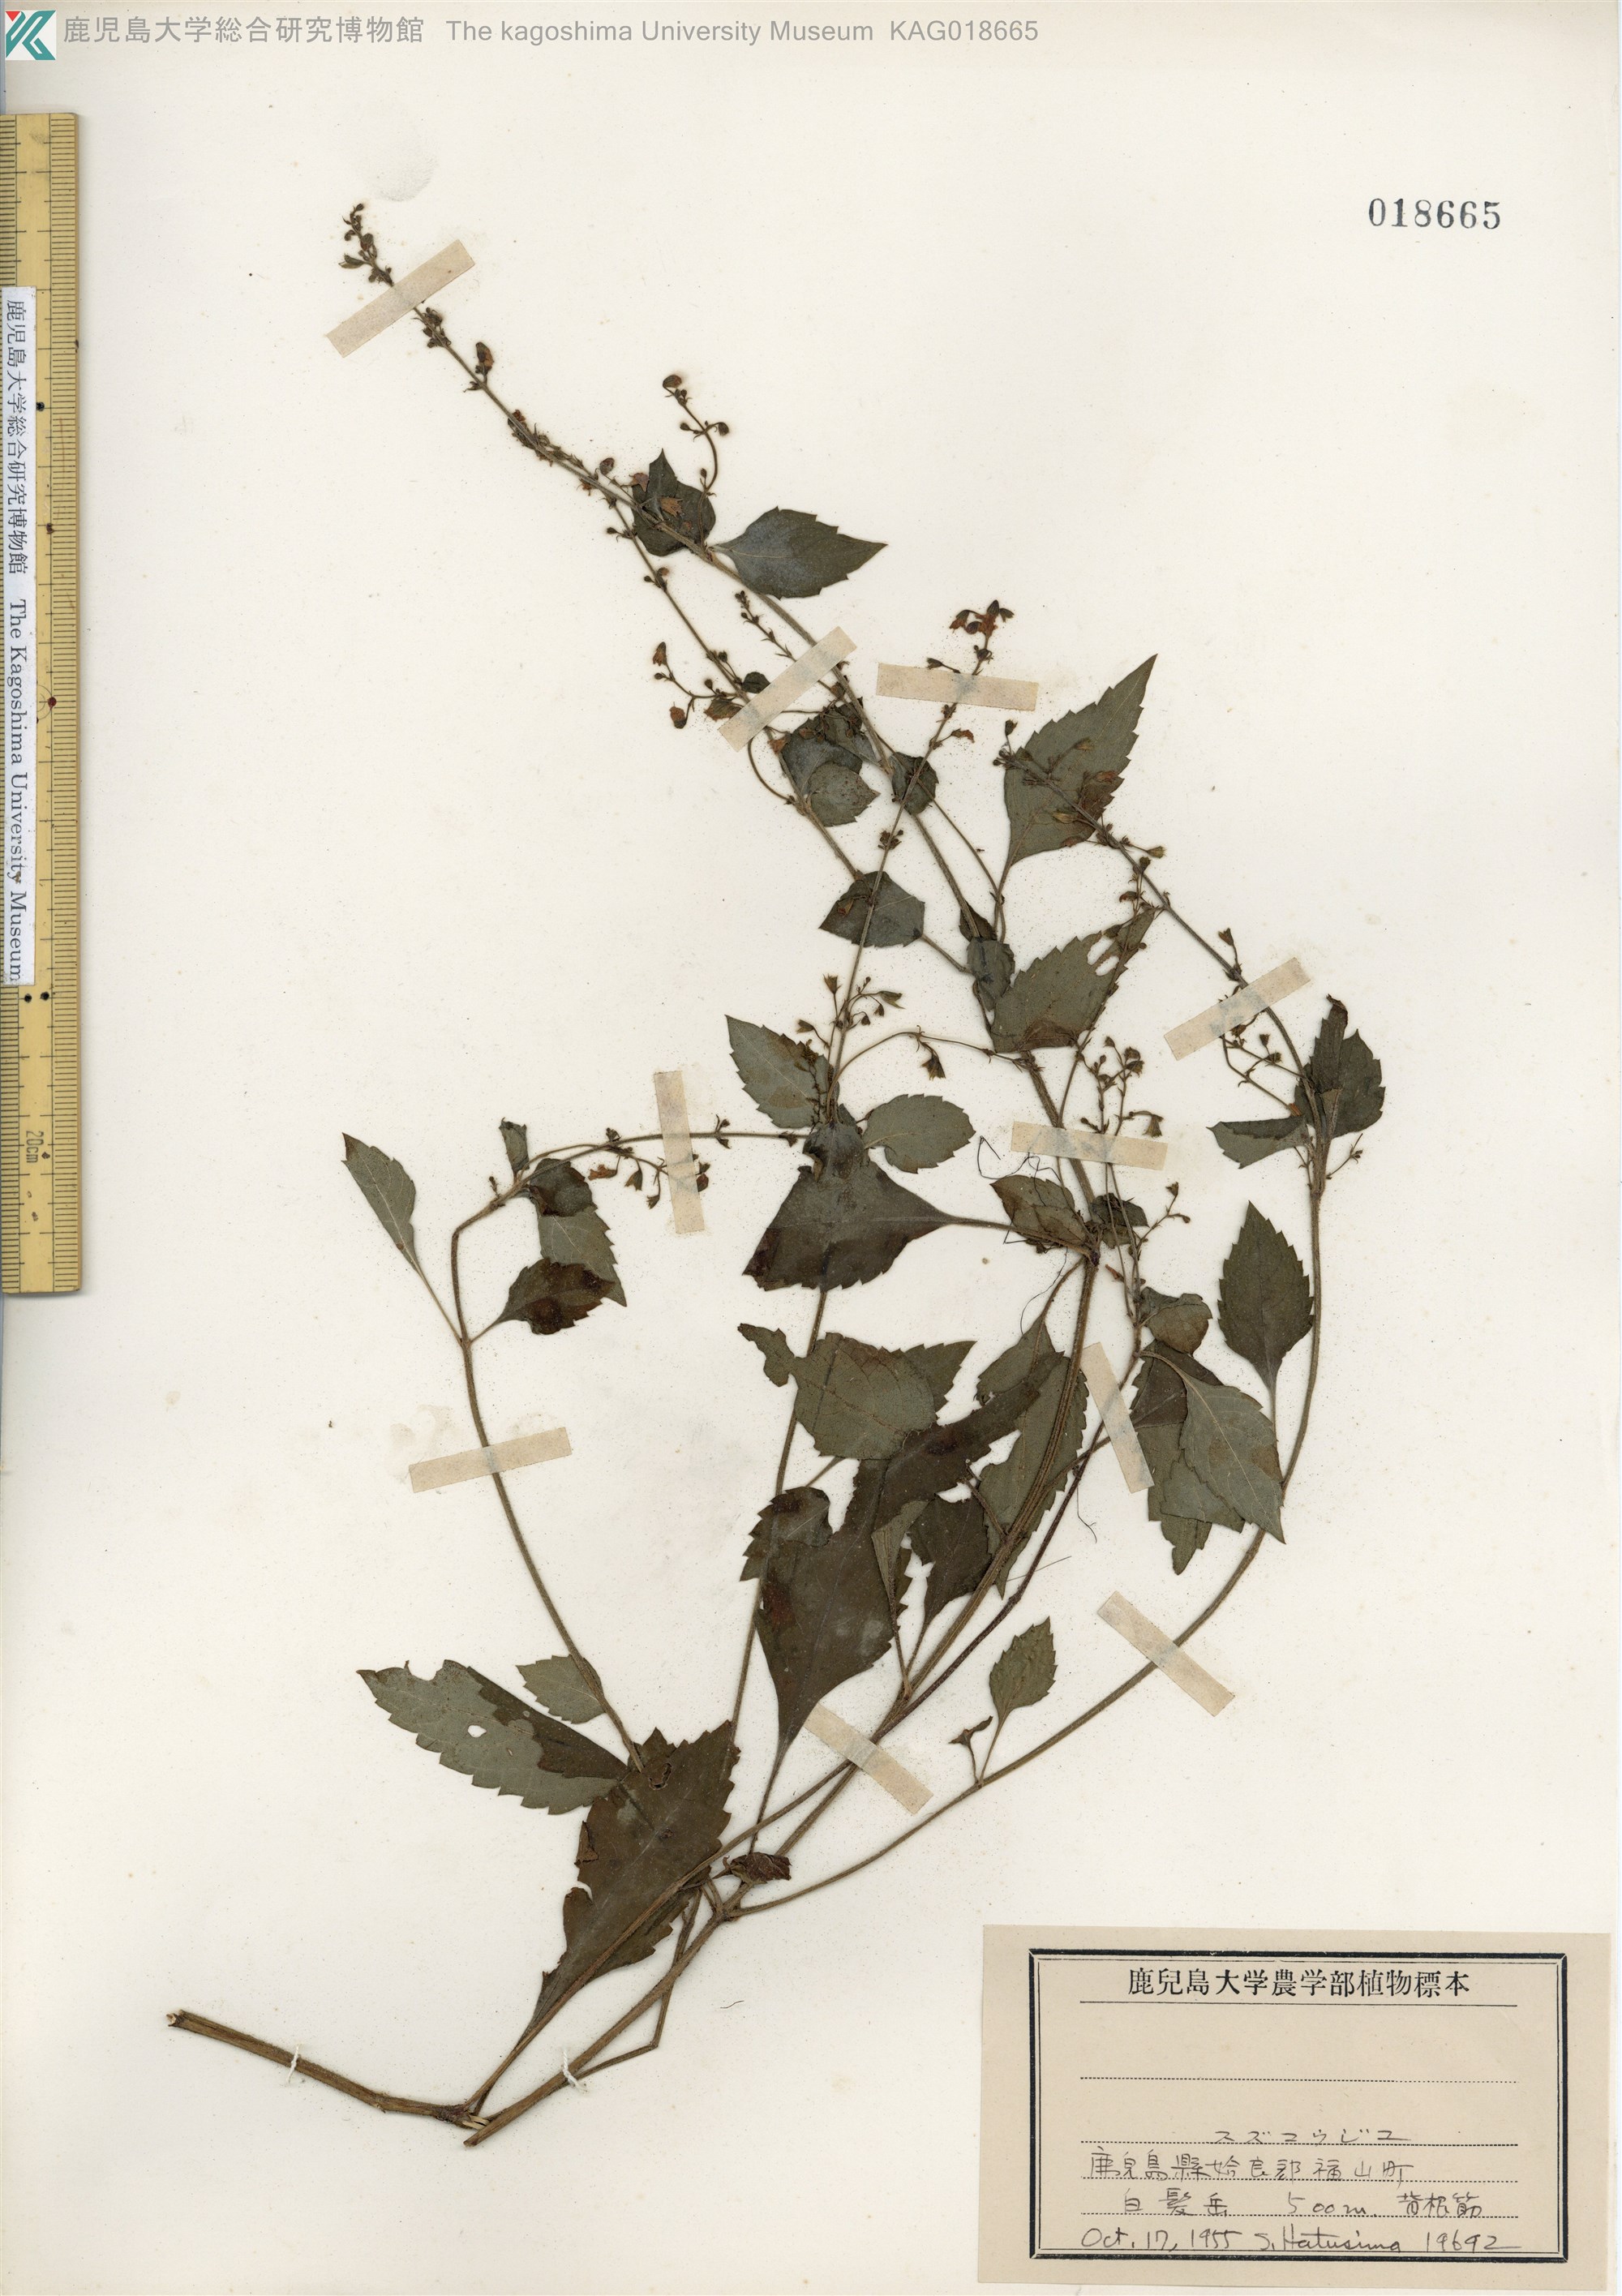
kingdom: Plantae
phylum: Tracheophyta
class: Magnoliopsida
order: Lamiales
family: Lamiaceae
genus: Perillula
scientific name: Perillula reptans
